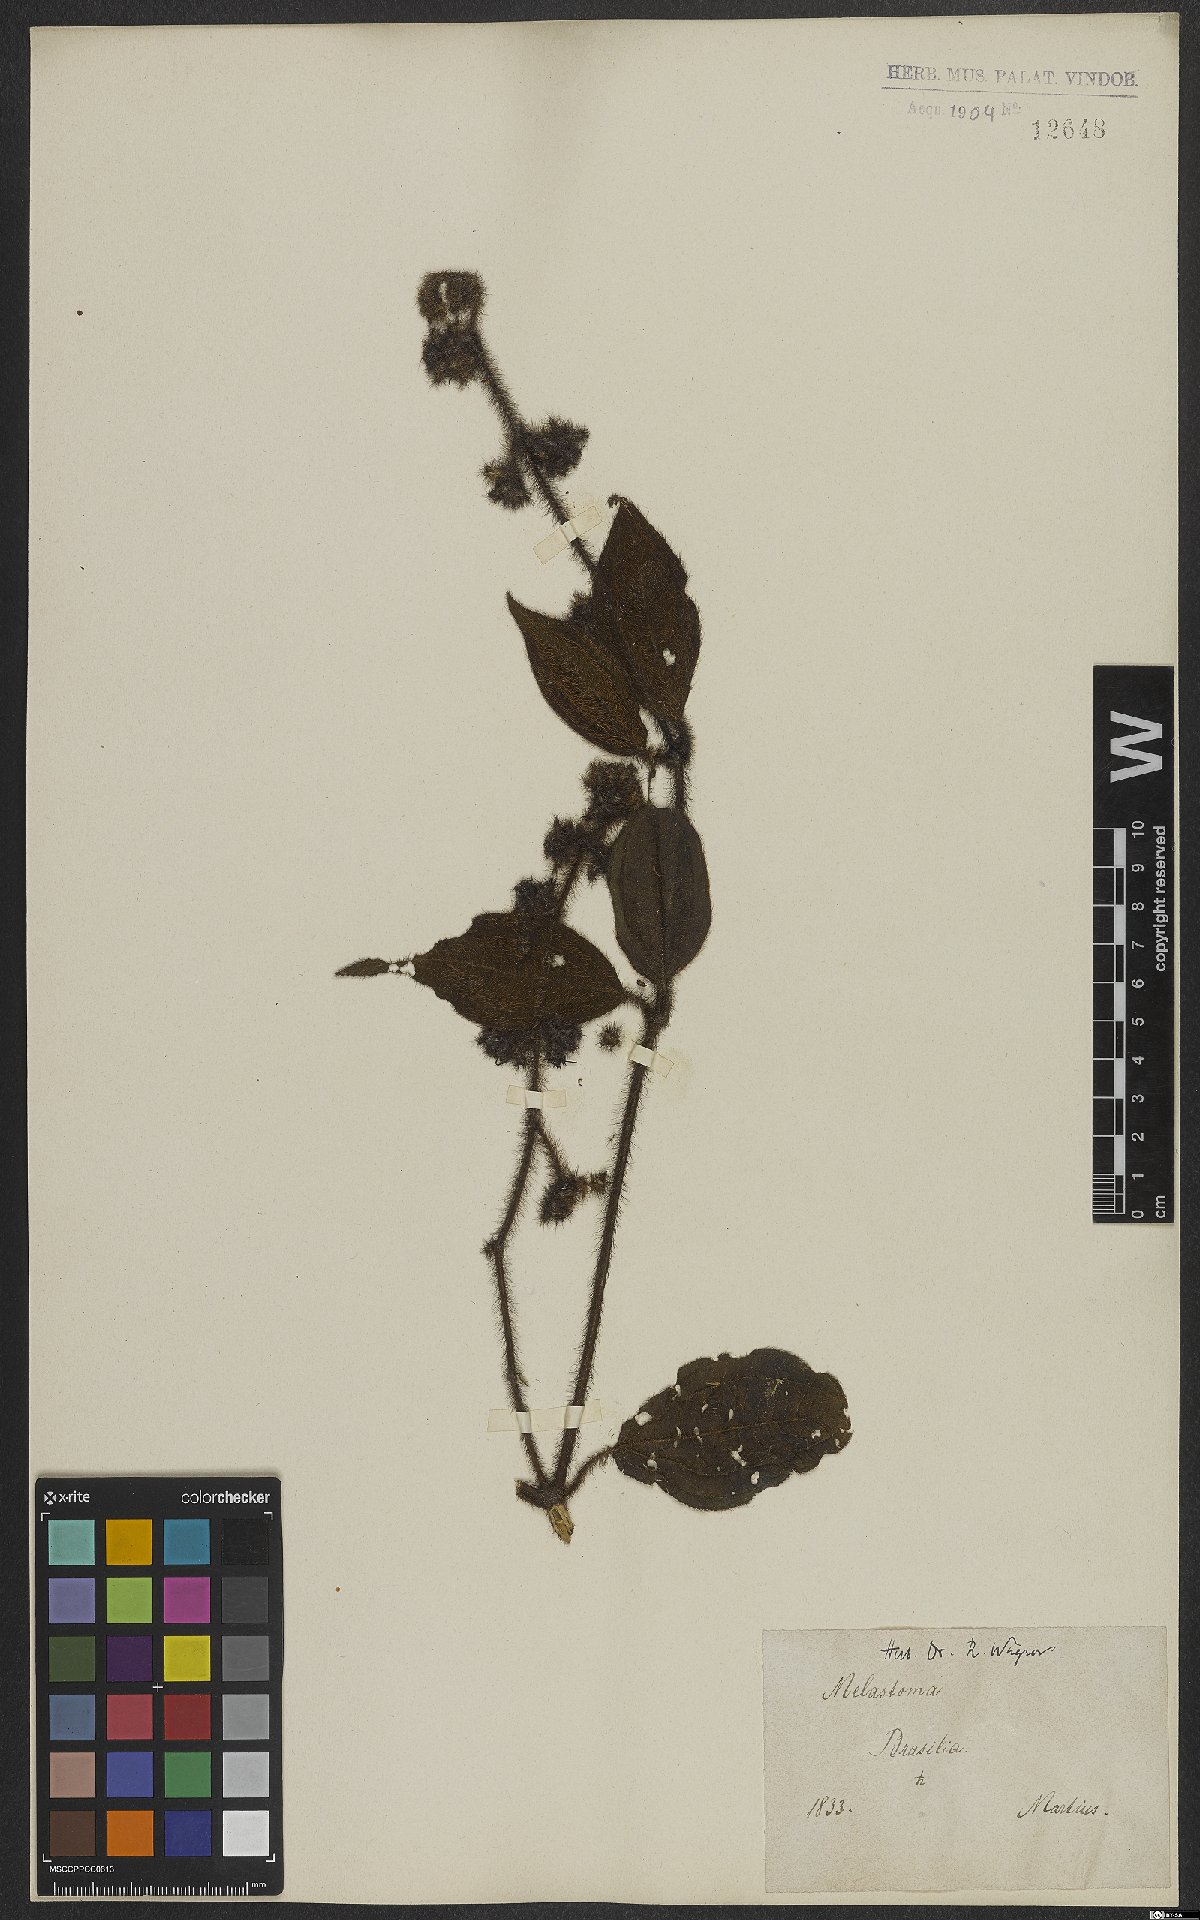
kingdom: Plantae
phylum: Tracheophyta
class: Magnoliopsida
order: Myrtales
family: Melastomataceae
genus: Miconia
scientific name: Miconia
